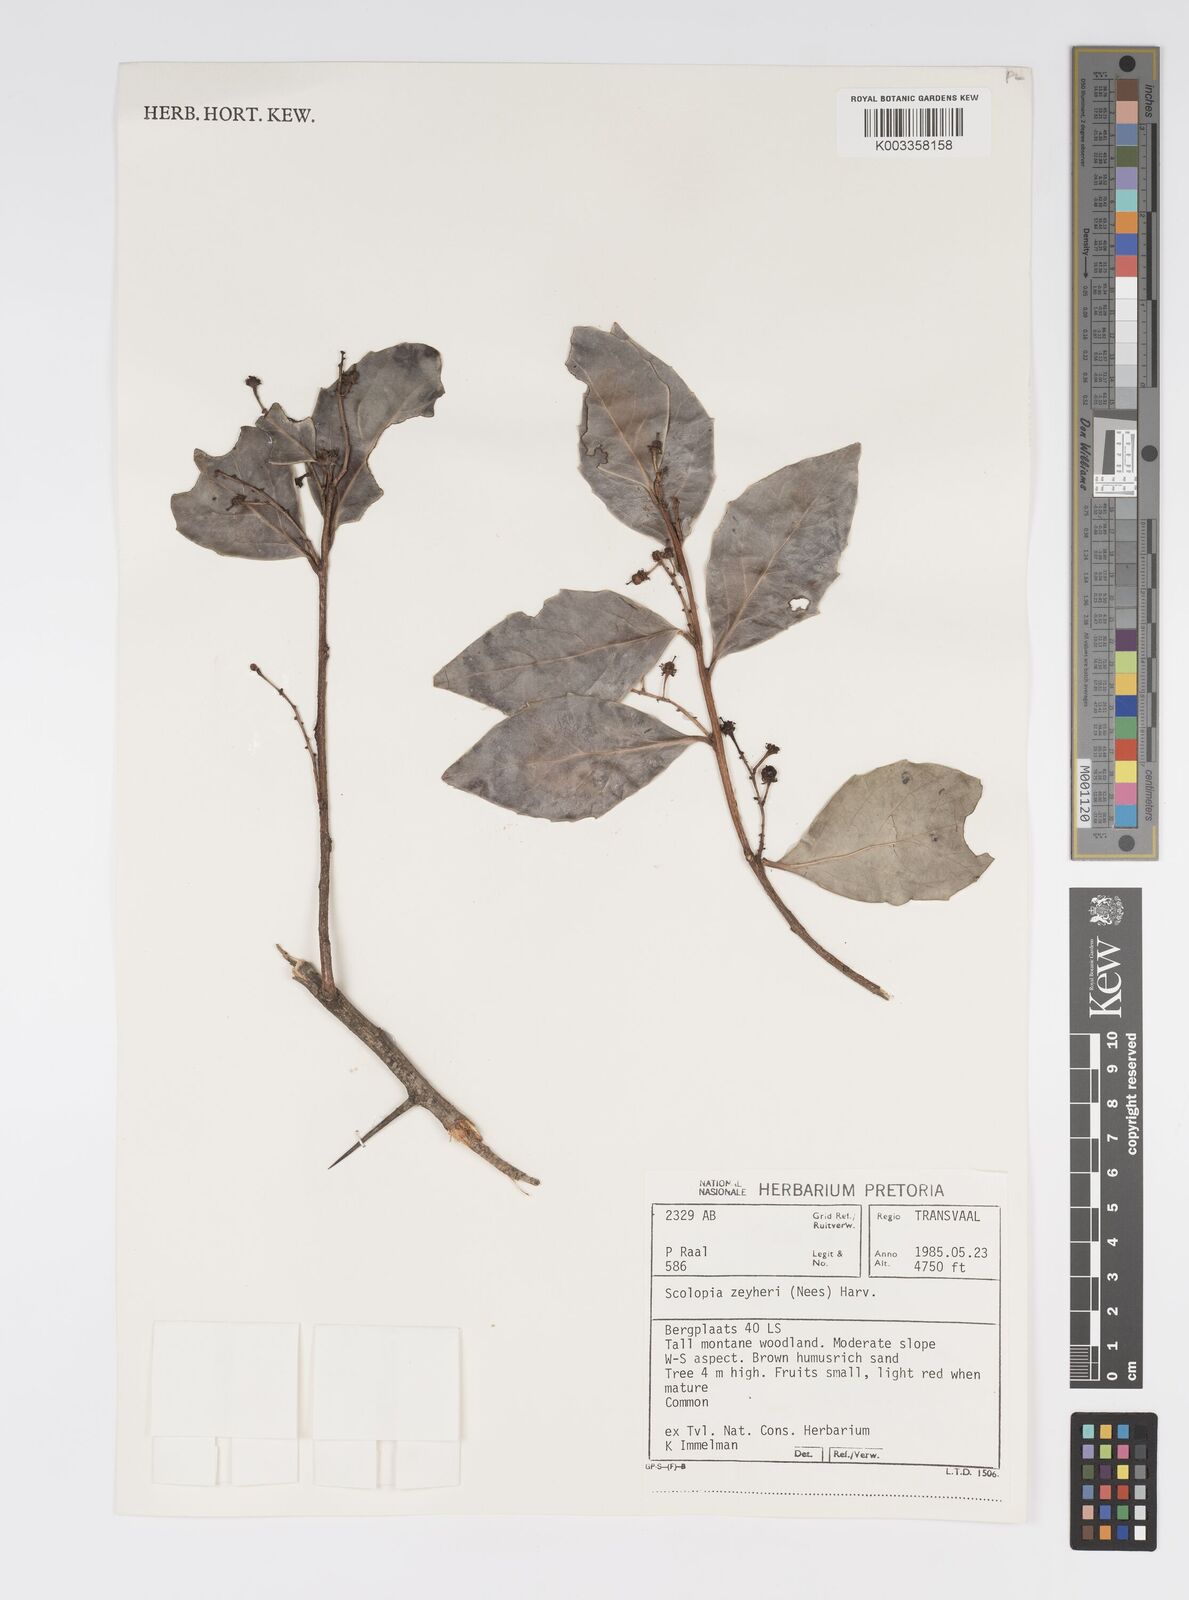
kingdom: Plantae
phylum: Tracheophyta
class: Magnoliopsida
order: Malpighiales
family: Salicaceae
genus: Scolopia
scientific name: Scolopia zeyheri
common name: Thorn pear
